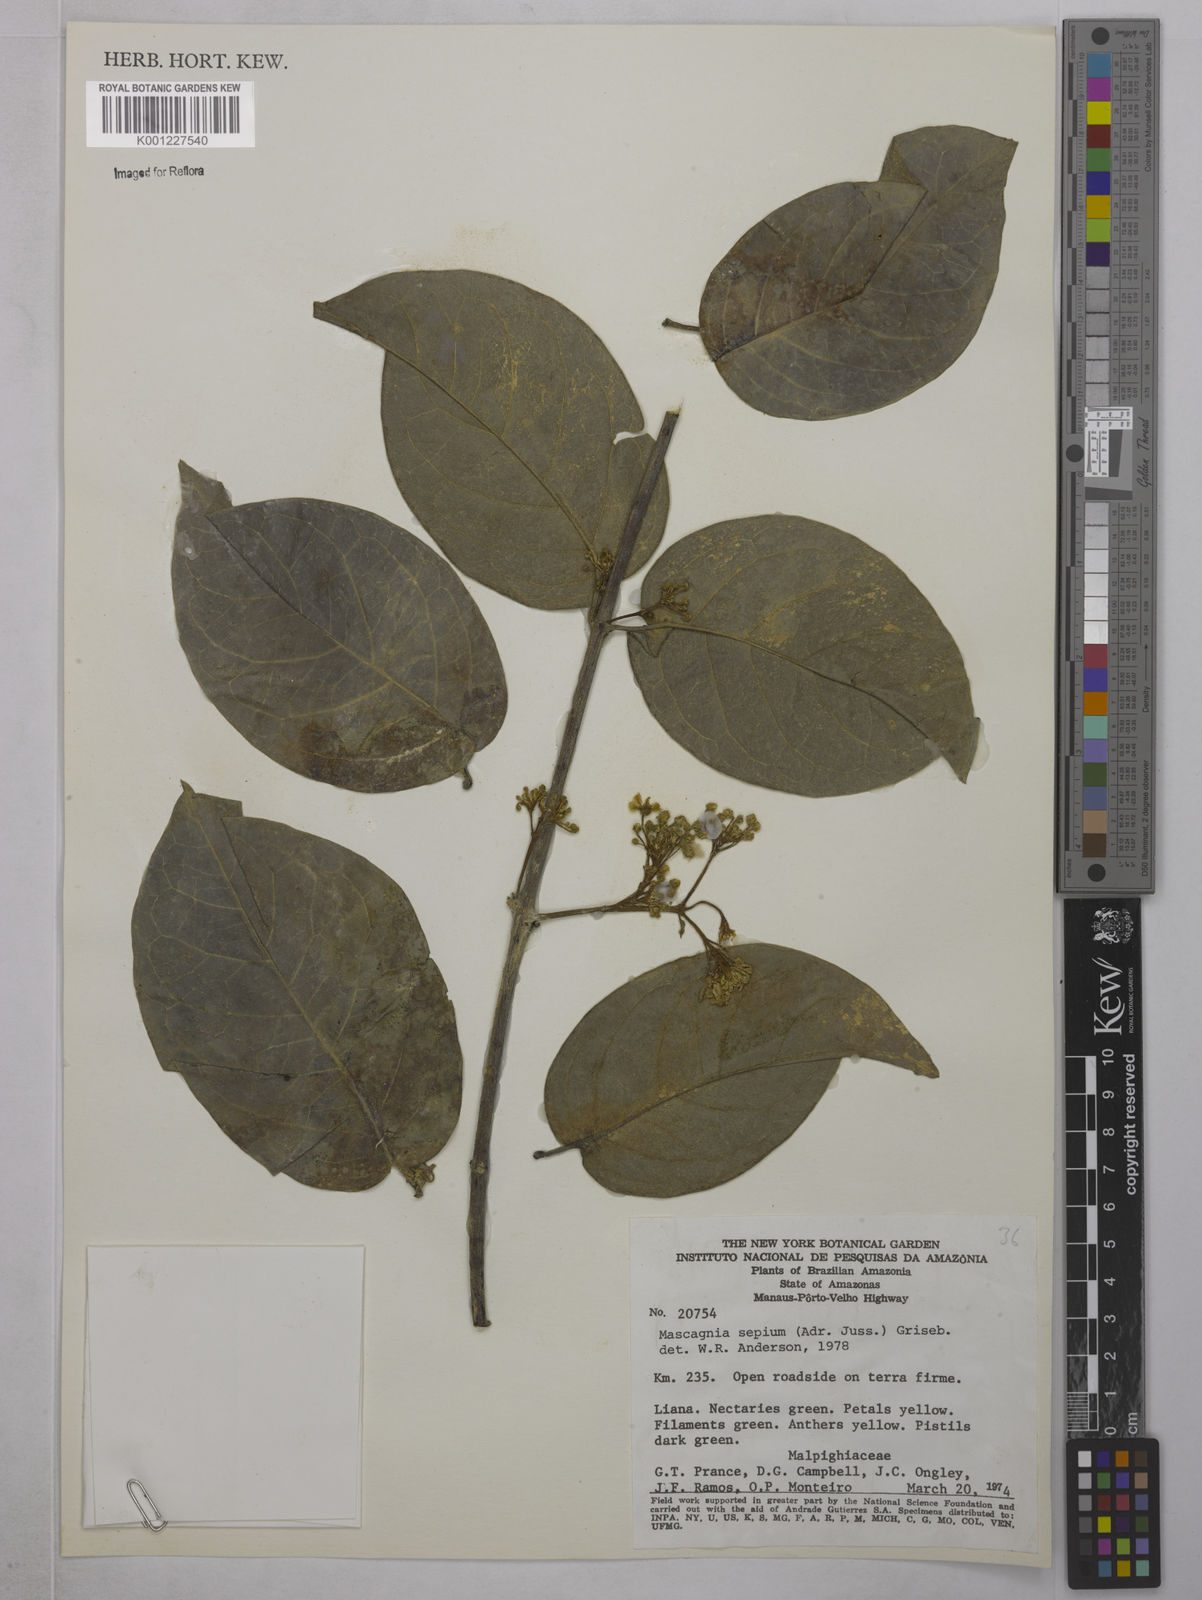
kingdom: Plantae
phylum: Tracheophyta
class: Magnoliopsida
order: Malpighiales
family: Malpighiaceae
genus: Mascagnia
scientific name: Mascagnia sepium
